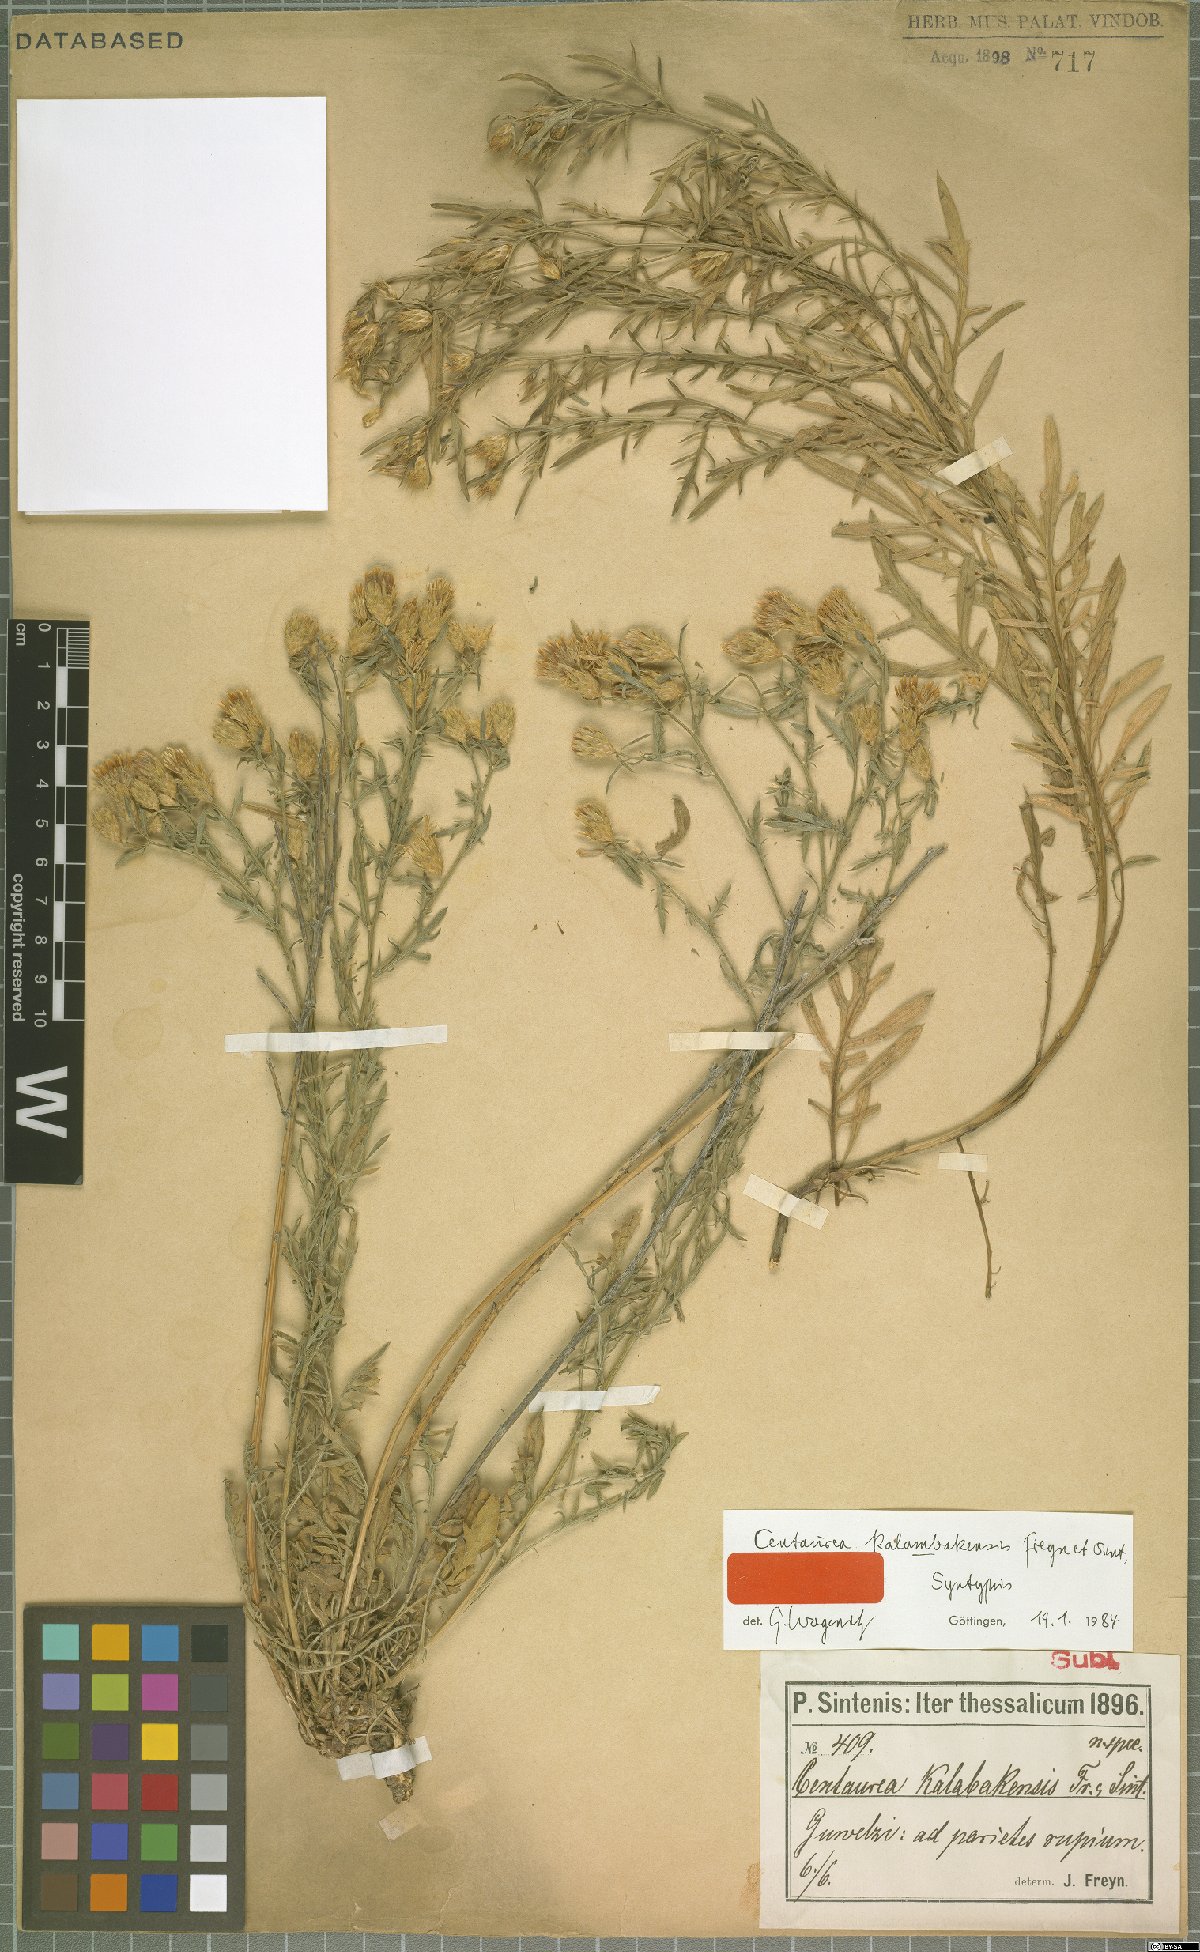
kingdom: Plantae
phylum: Tracheophyta
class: Magnoliopsida
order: Asterales
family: Asteraceae
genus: Centaurea
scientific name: Centaurea kalambakensis
